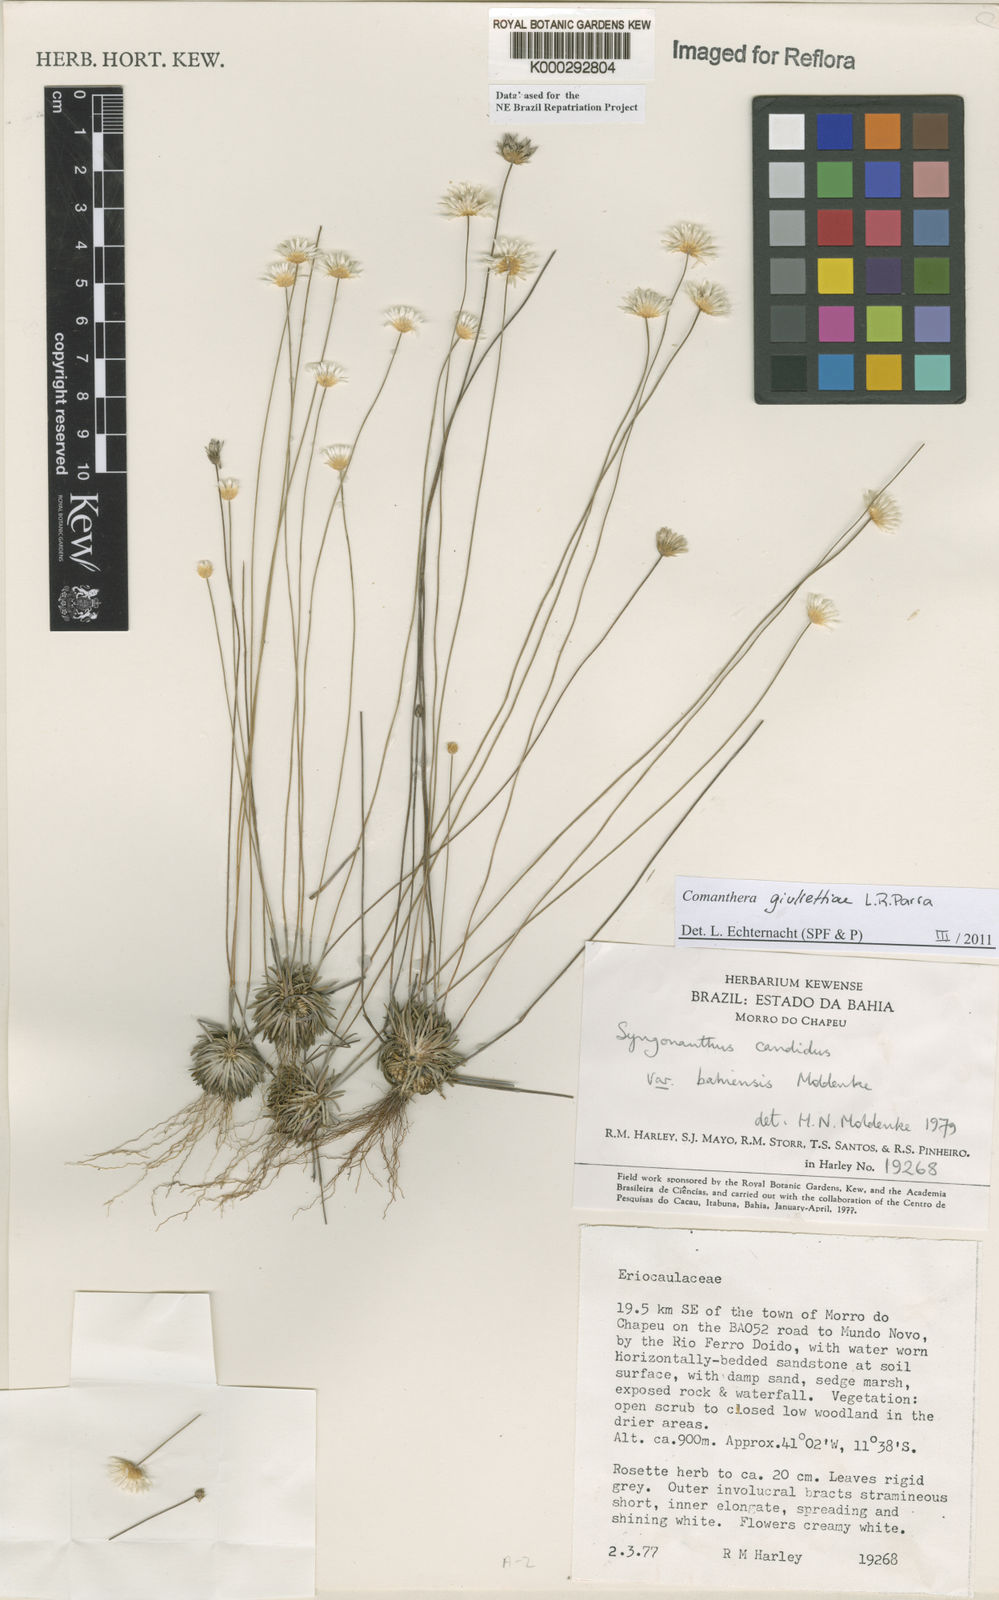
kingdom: Plantae
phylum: Tracheophyta
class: Liliopsida
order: Poales
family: Eriocaulaceae
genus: Comanthera
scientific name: Comanthera giuliettiae
